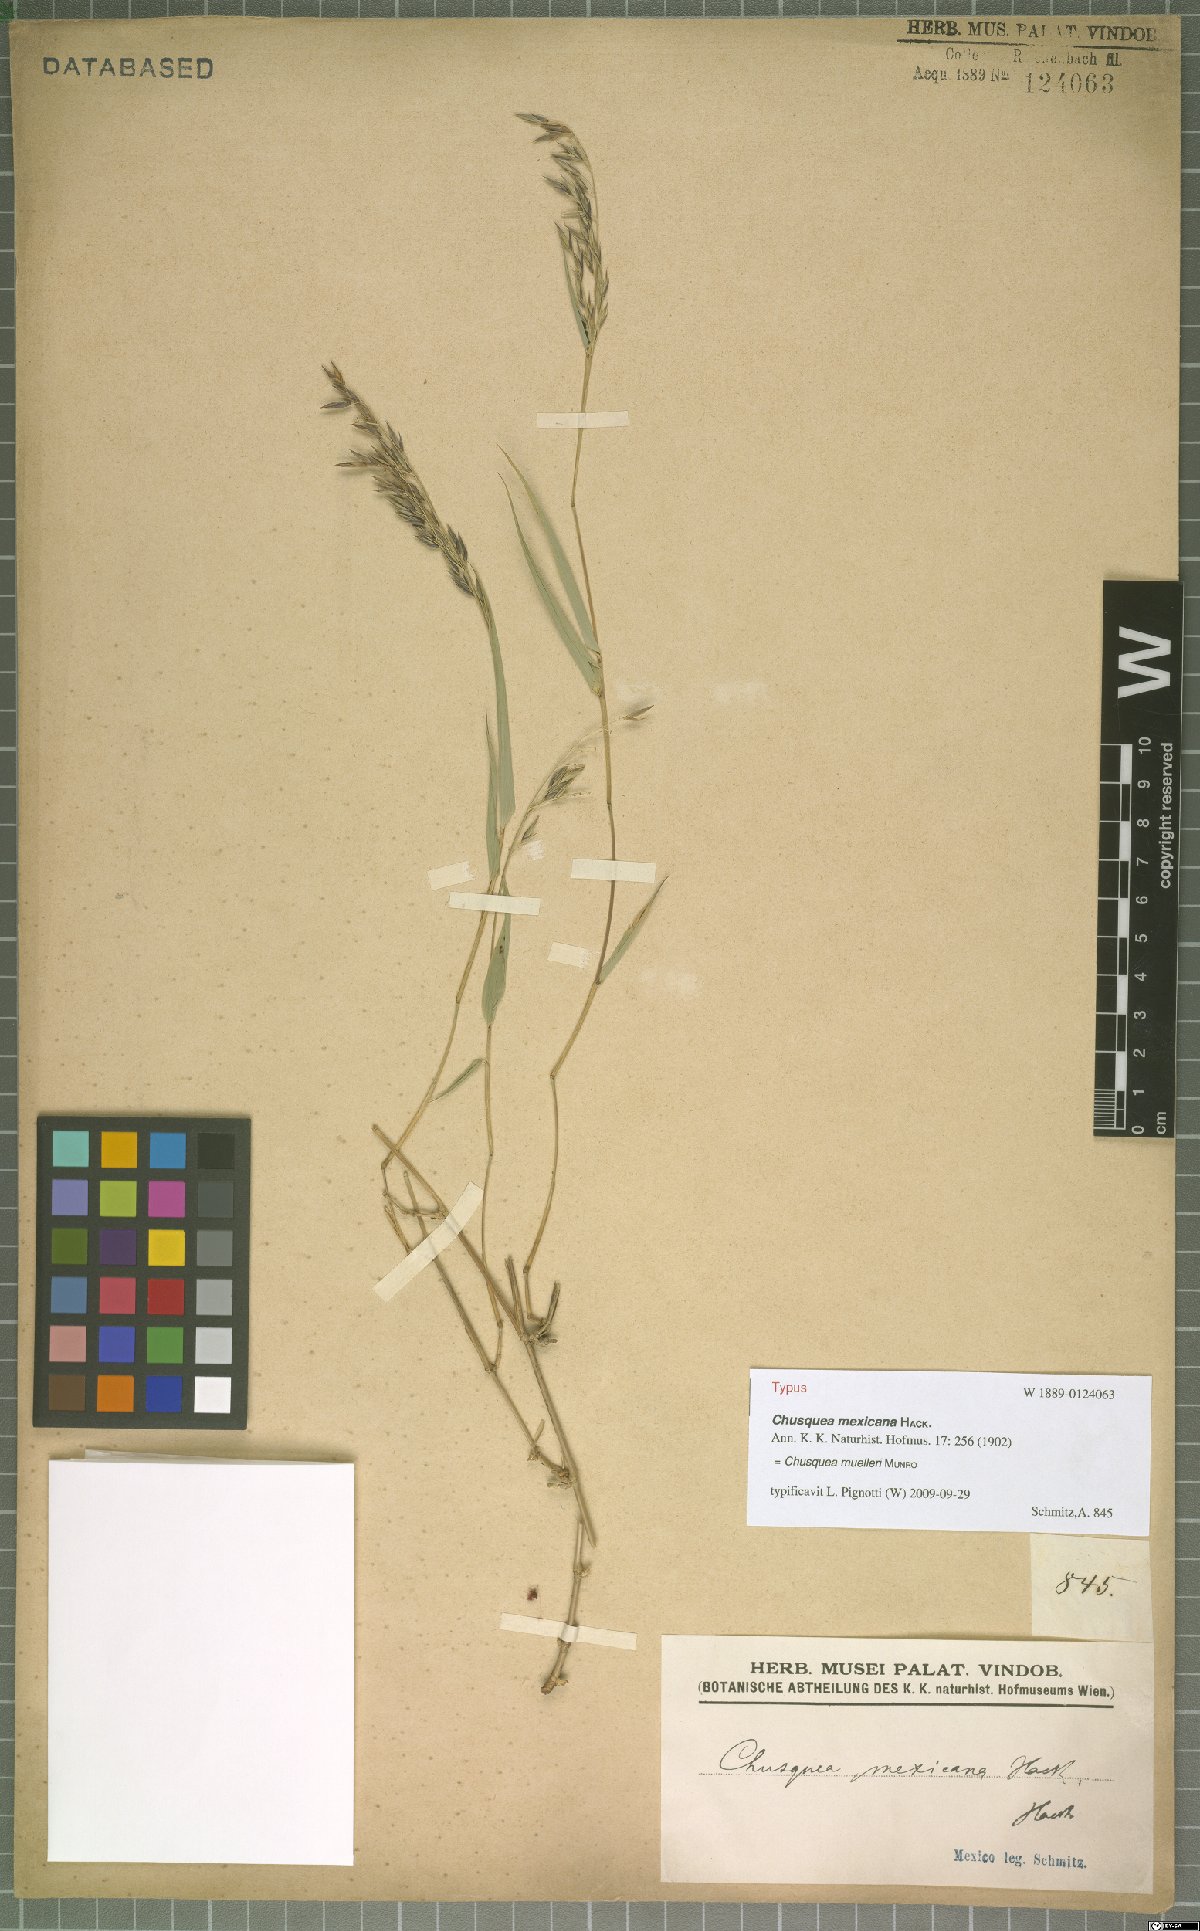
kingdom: Plantae
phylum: Tracheophyta
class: Liliopsida
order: Poales
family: Poaceae
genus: Chusquea
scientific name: Chusquea mulleri
